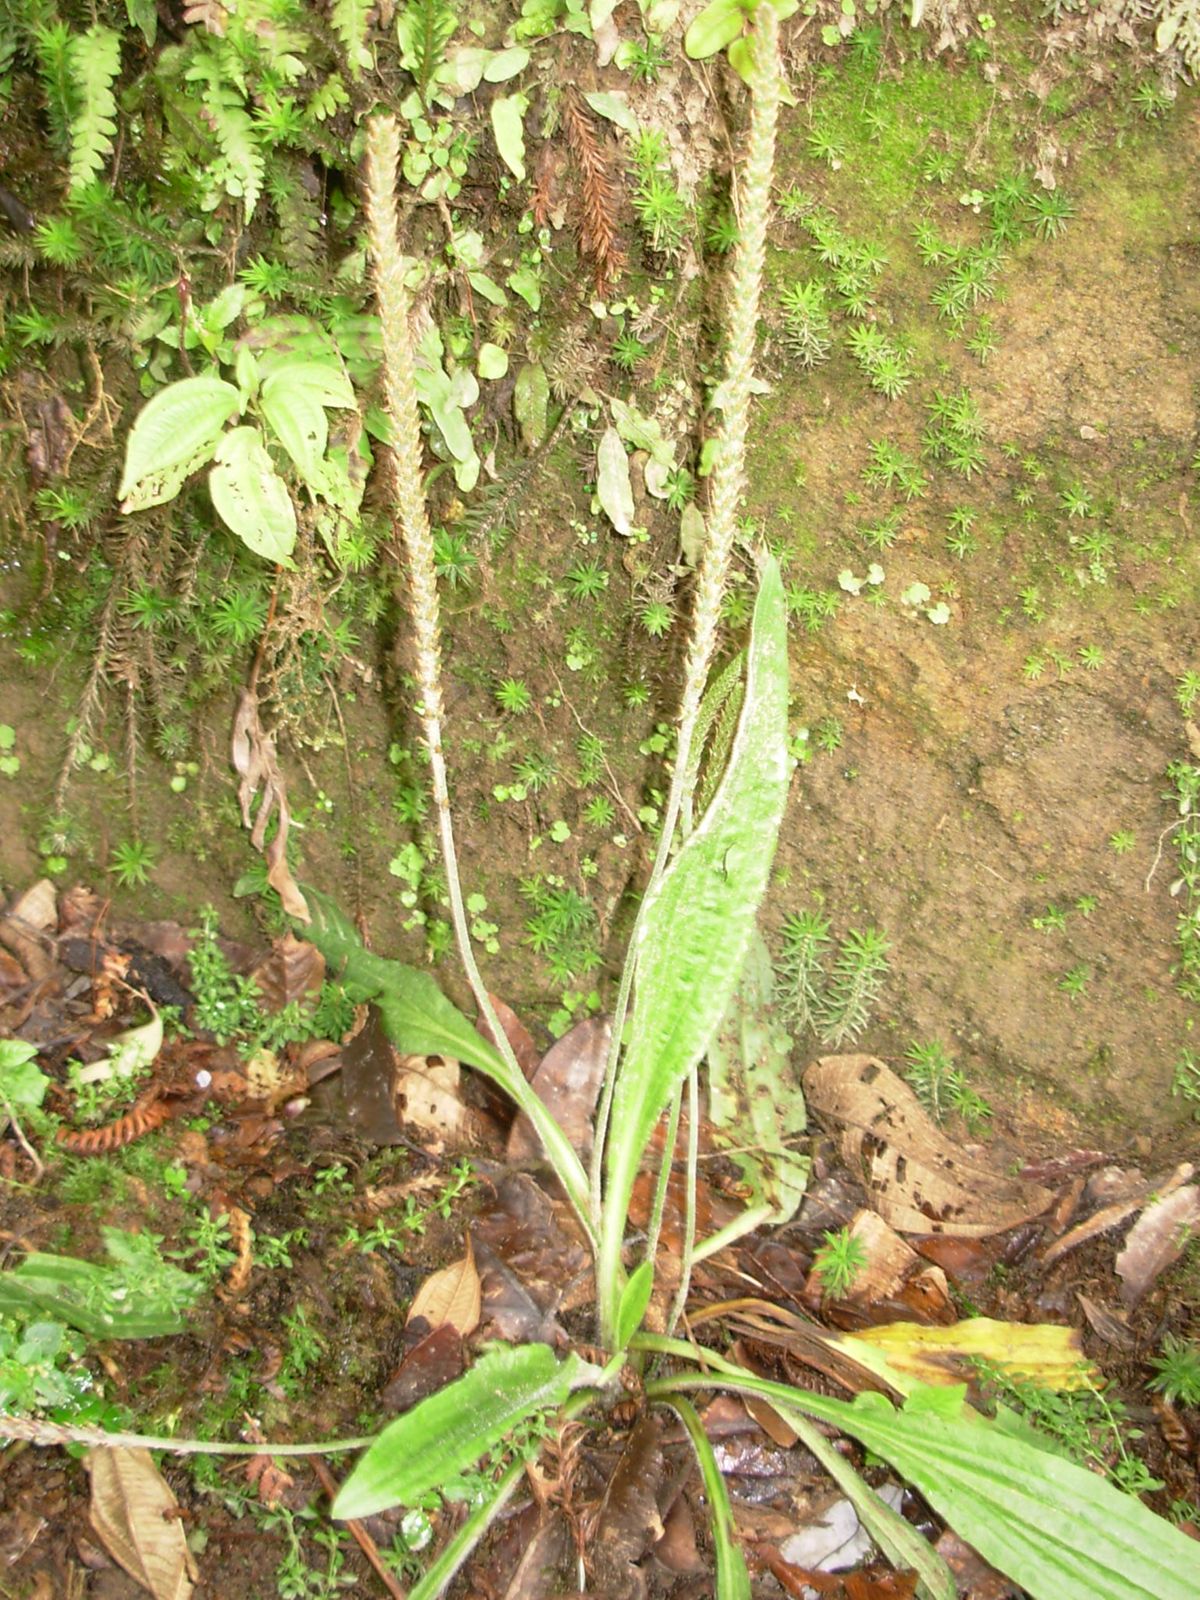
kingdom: Plantae
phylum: Tracheophyta
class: Magnoliopsida
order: Lamiales
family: Plantaginaceae
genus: Plantago
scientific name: Plantago australis
